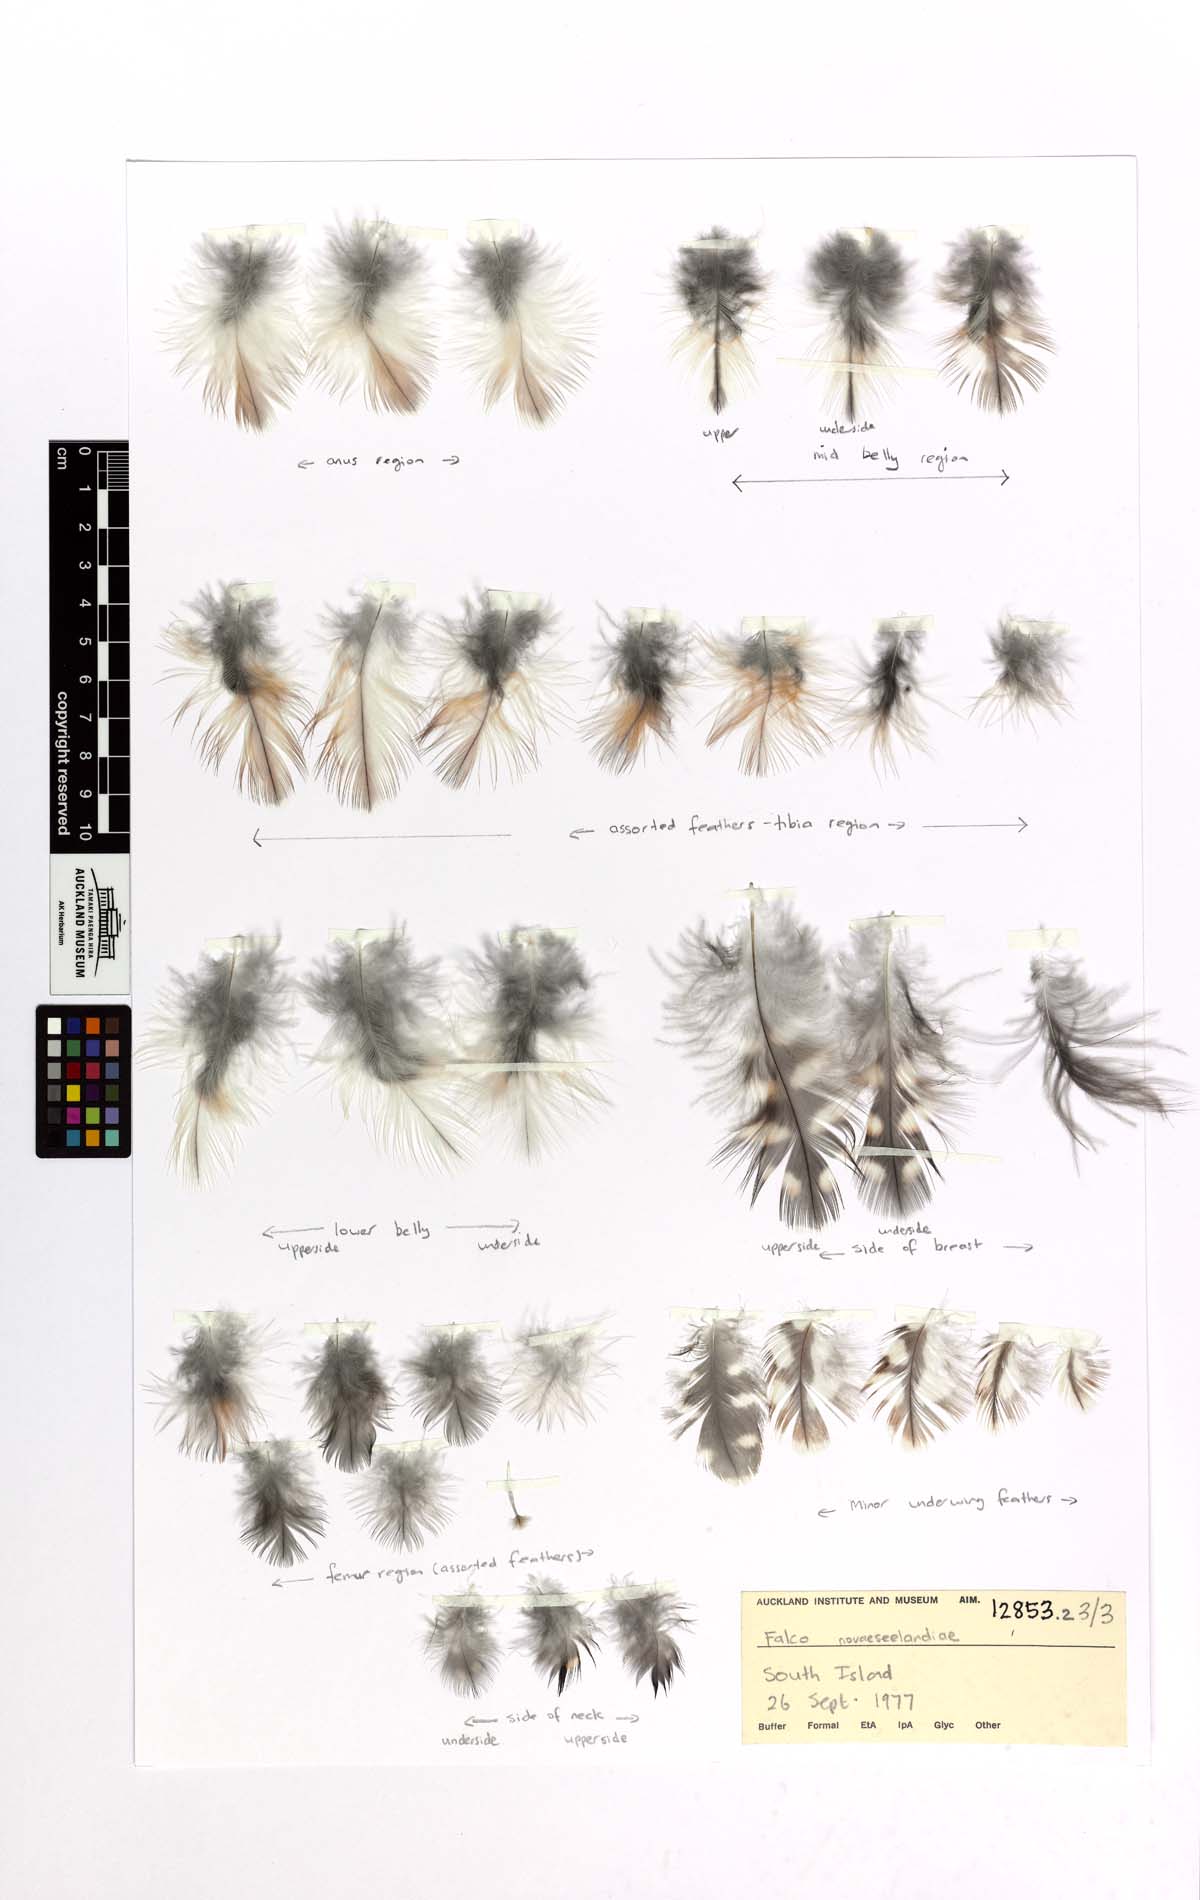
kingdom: Animalia
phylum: Chordata
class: Aves
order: Falconiformes
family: Falconidae
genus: Falco
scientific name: Falco novaeseelandiae
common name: New zealand falcon
